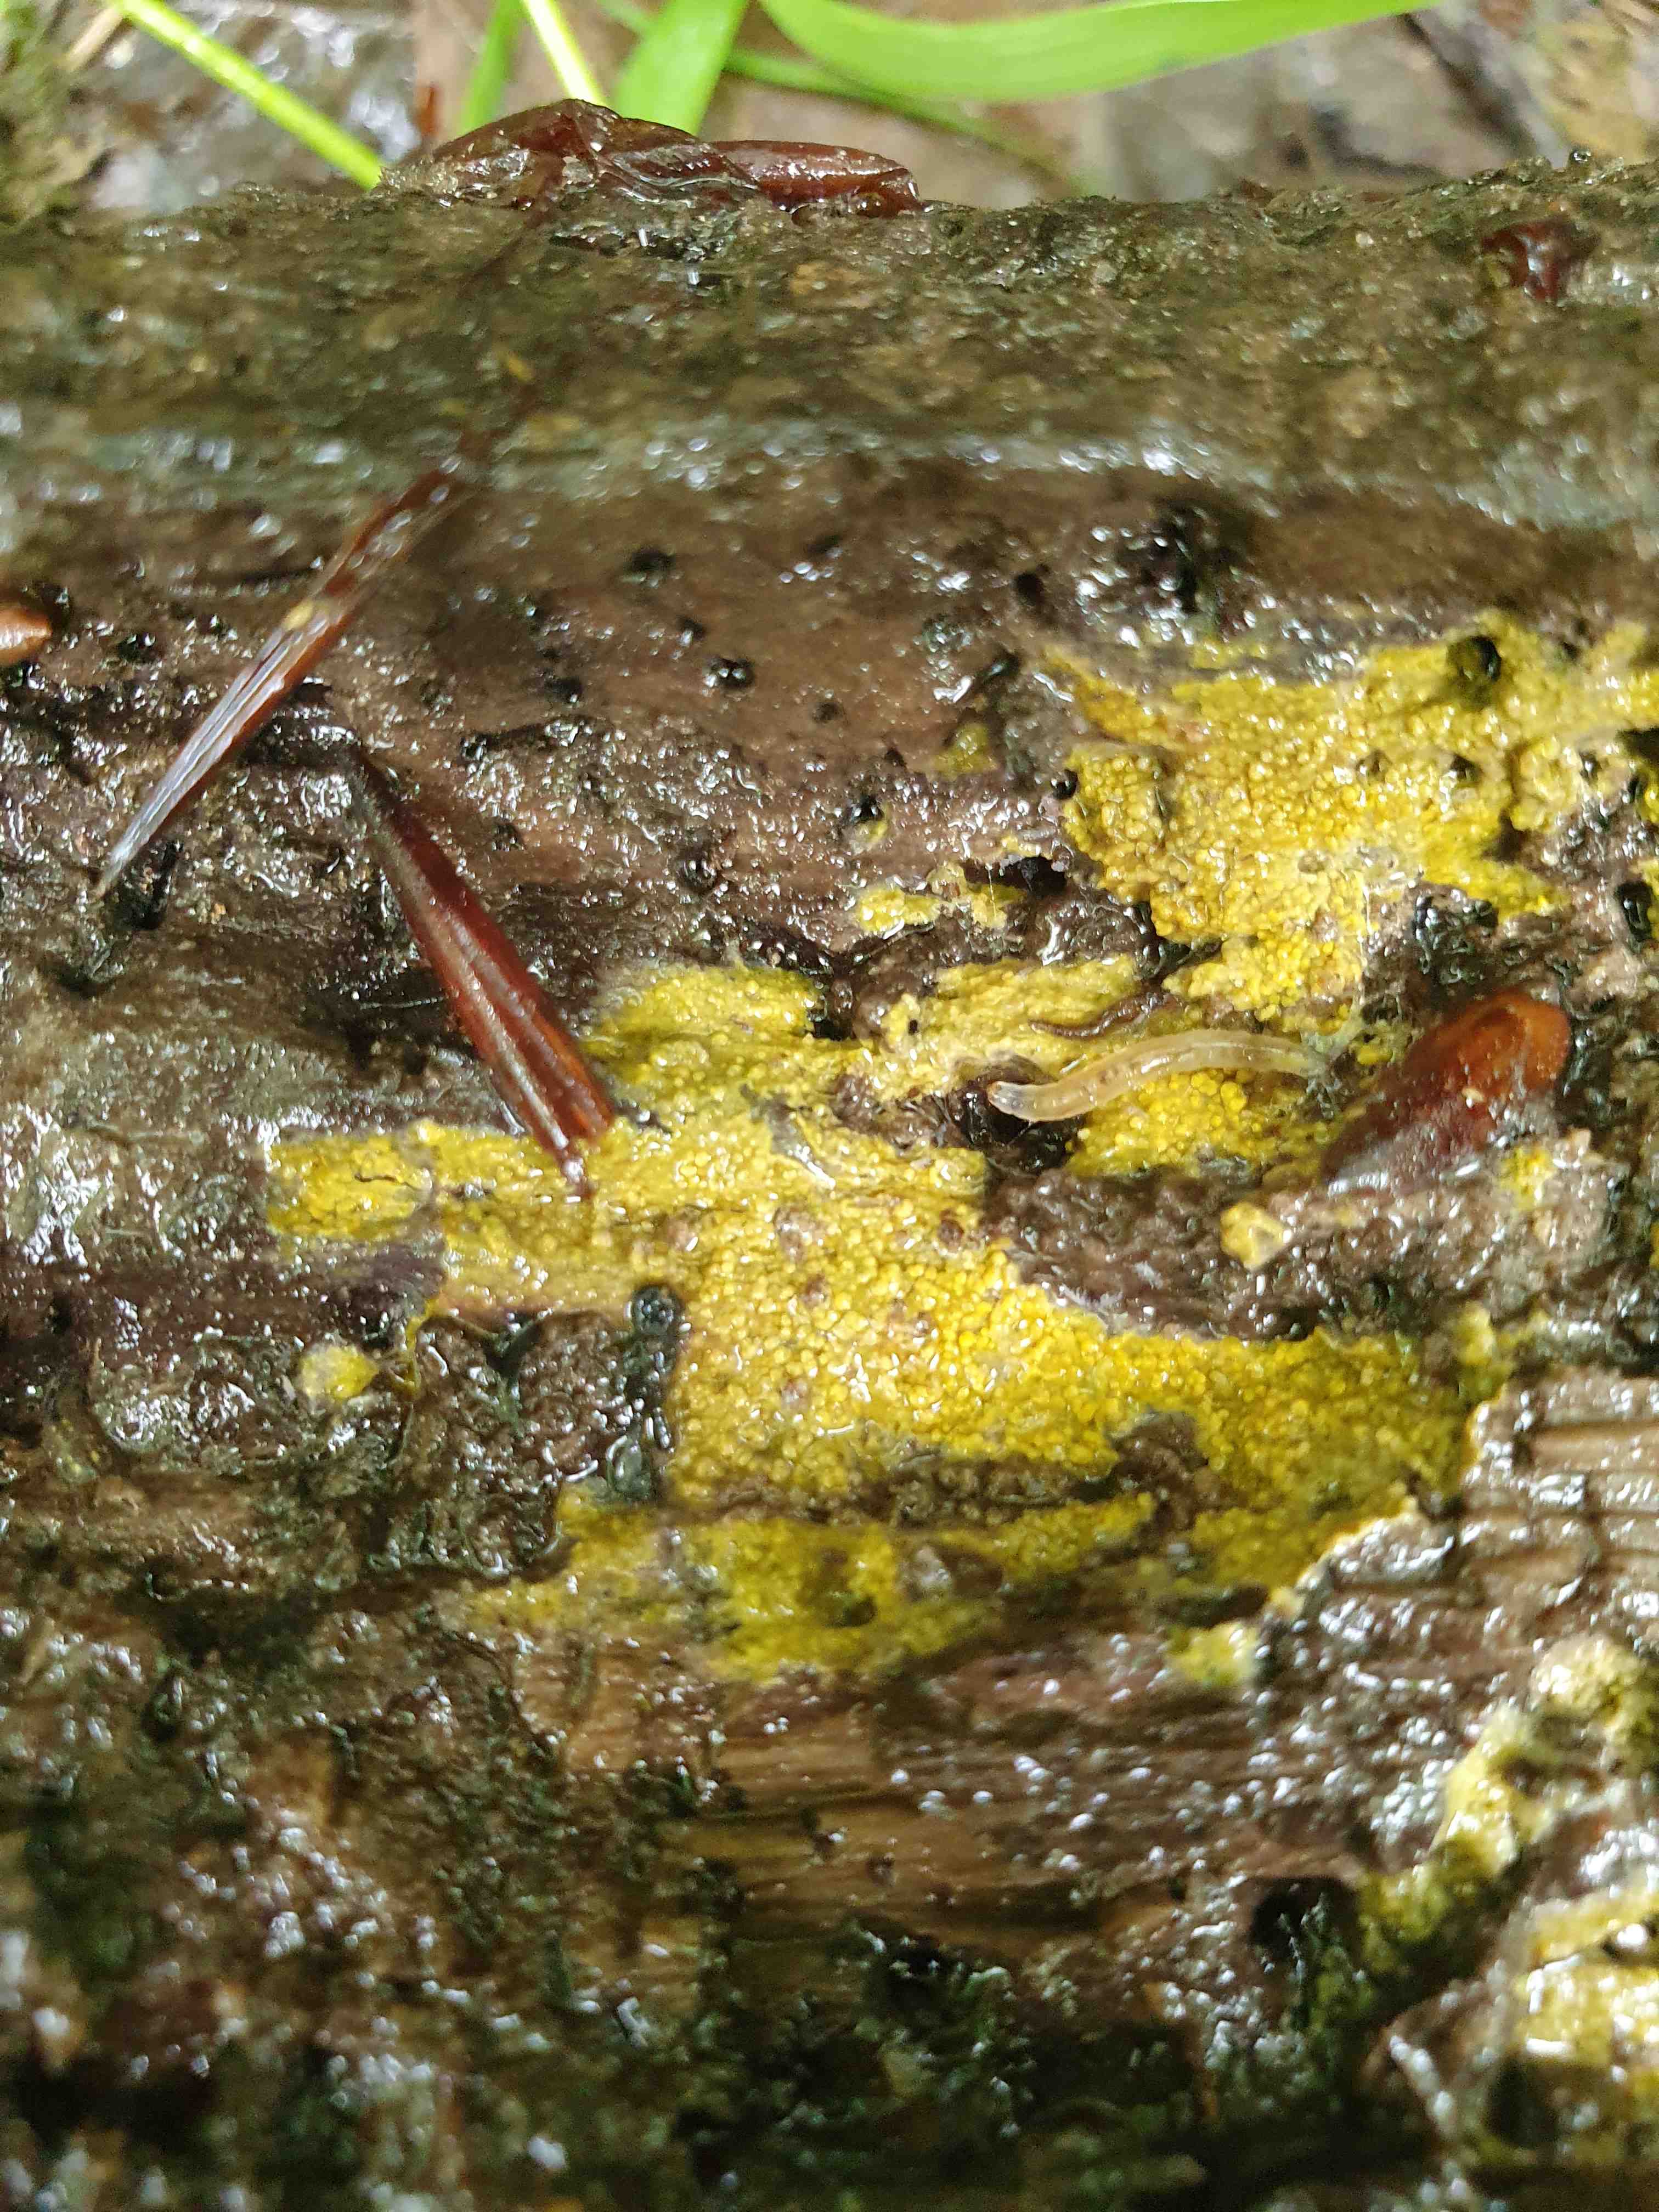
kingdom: Fungi
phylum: Basidiomycota
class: Agaricomycetes
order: Polyporales
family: Meruliaceae
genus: Phlebiodontia
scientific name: Phlebiodontia subochracea
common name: svovl-åresvamp
